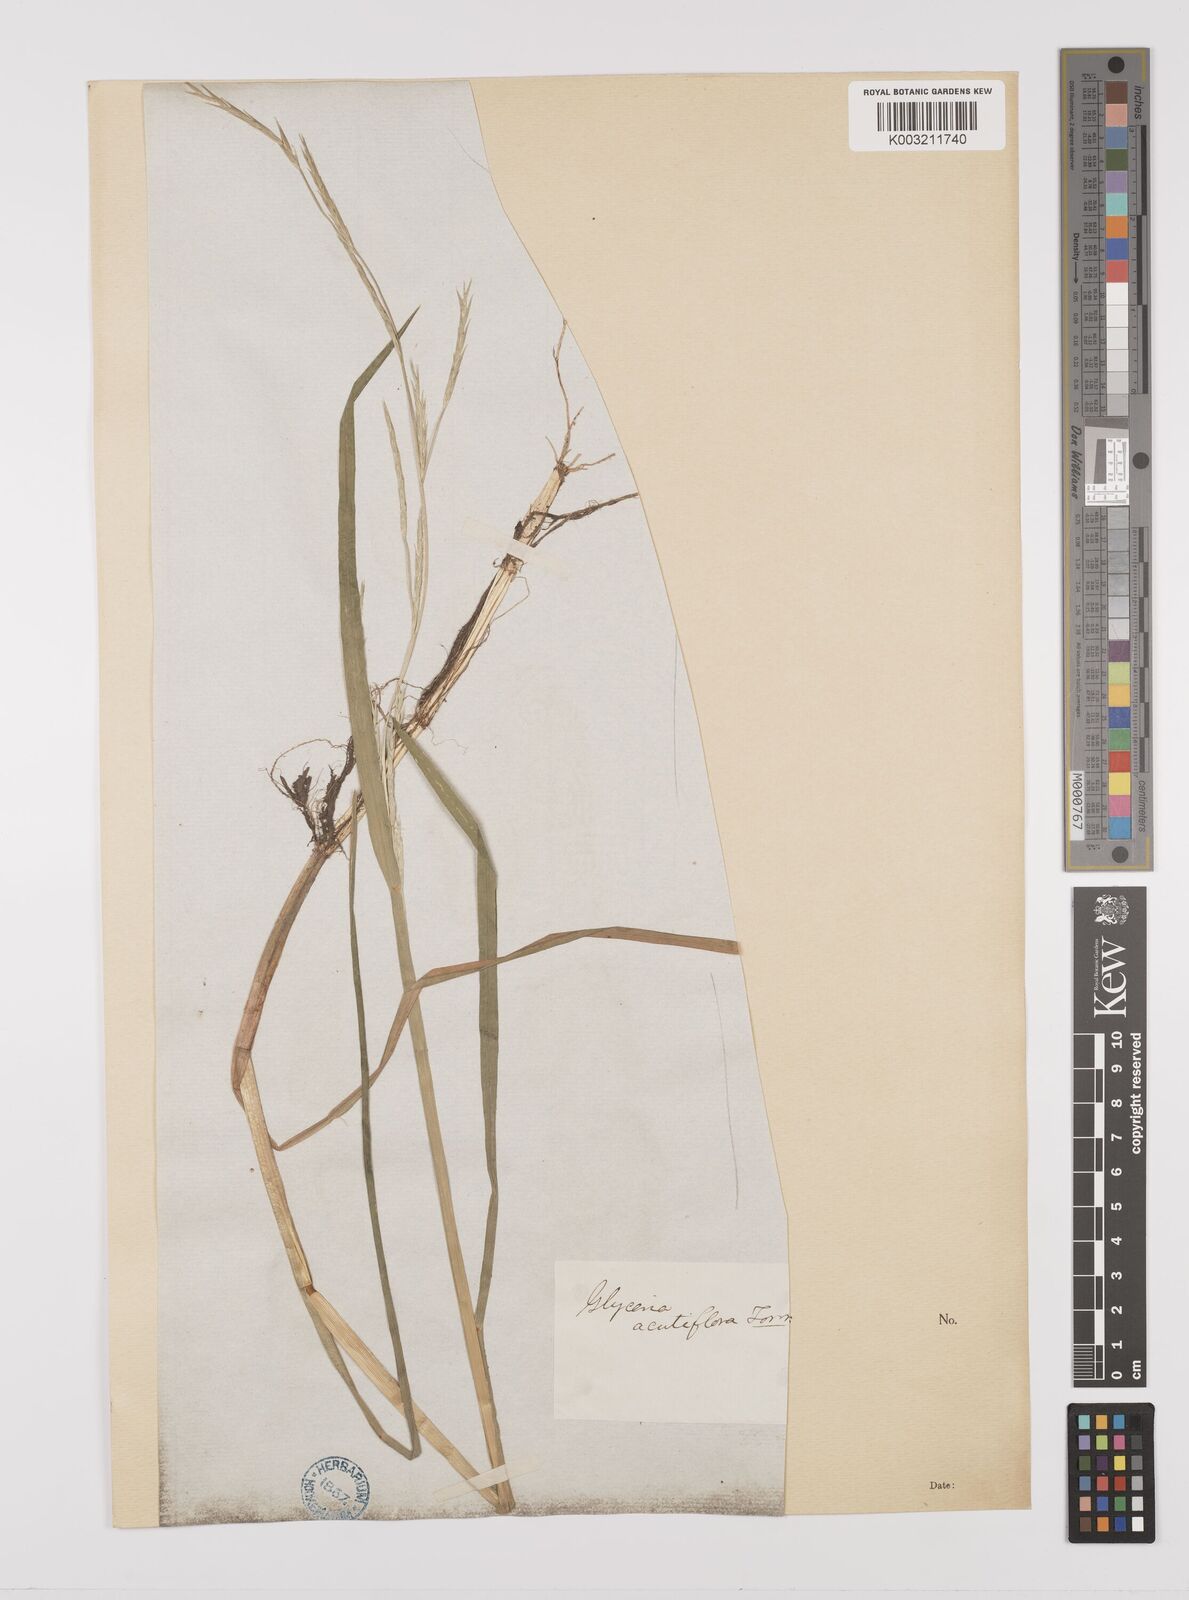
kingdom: Plantae
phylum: Tracheophyta
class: Liliopsida
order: Poales
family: Poaceae
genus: Glyceria
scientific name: Glyceria acutiflora
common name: Sharp-glumed manna-grass
